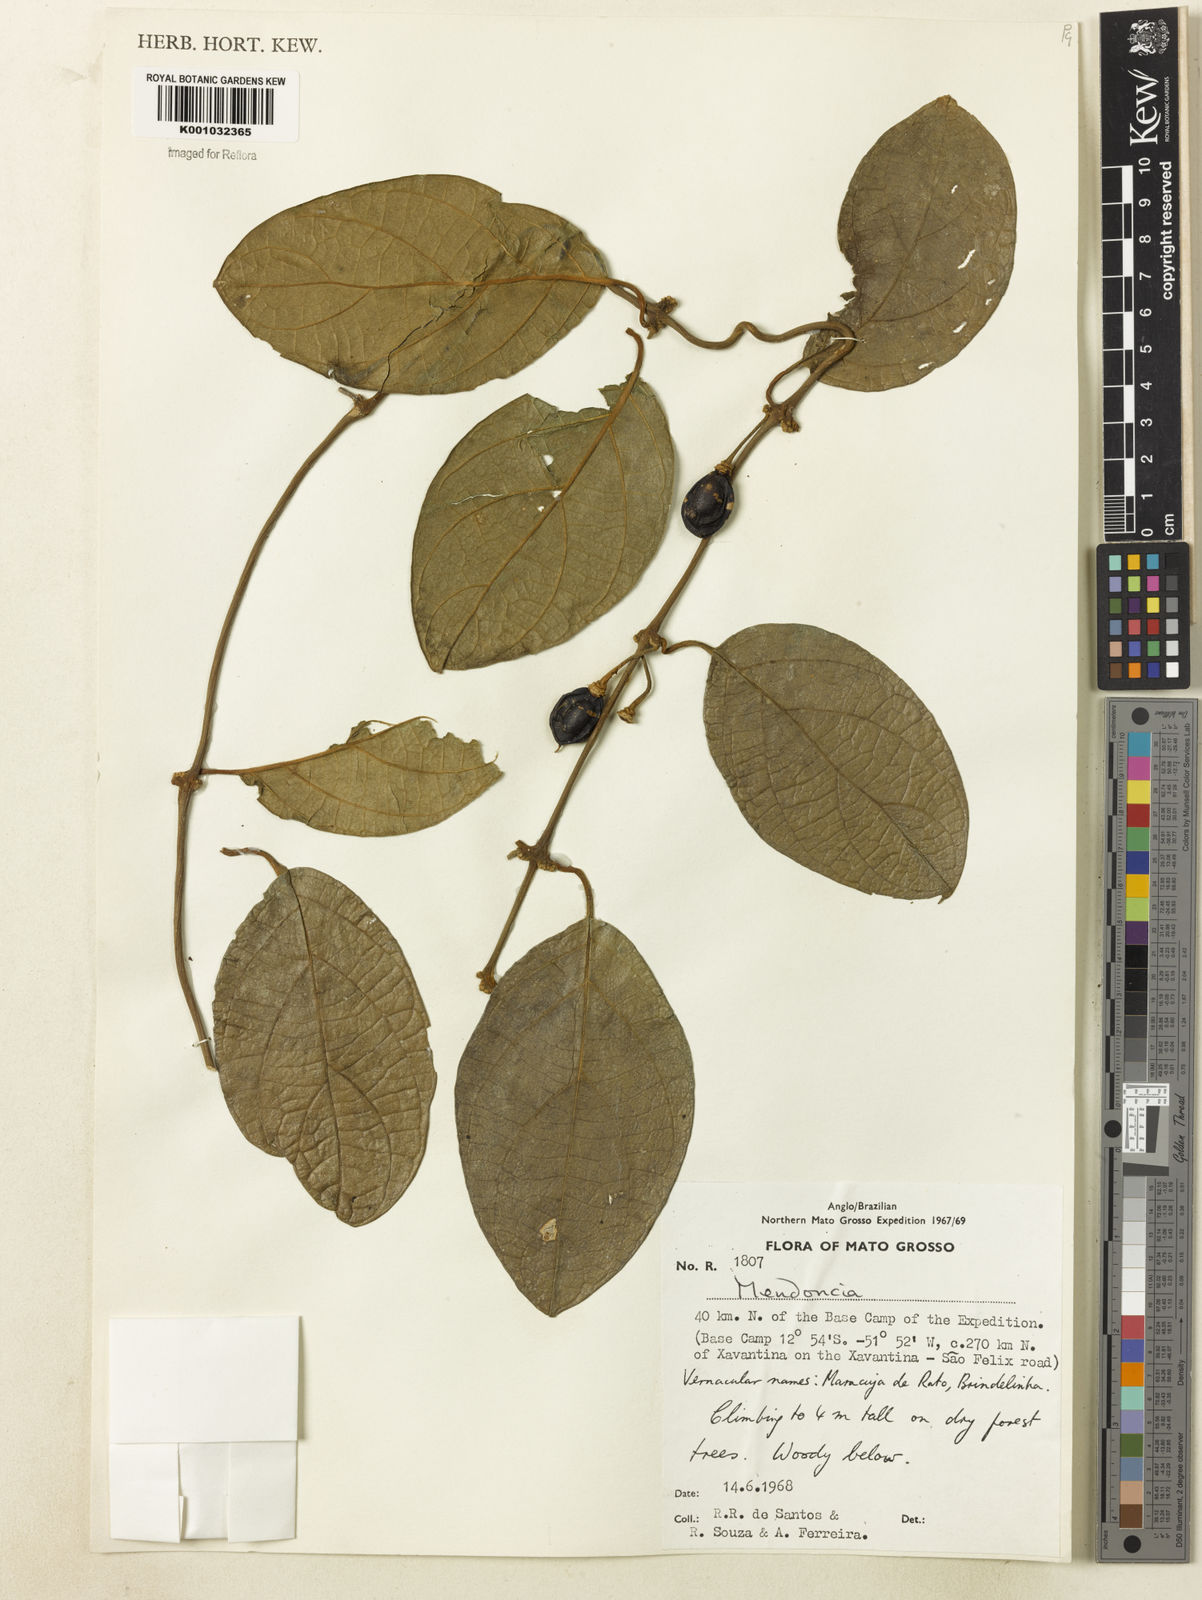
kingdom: Plantae
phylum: Tracheophyta
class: Magnoliopsida
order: Lamiales
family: Acanthaceae
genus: Mendoncia
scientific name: Mendoncia
